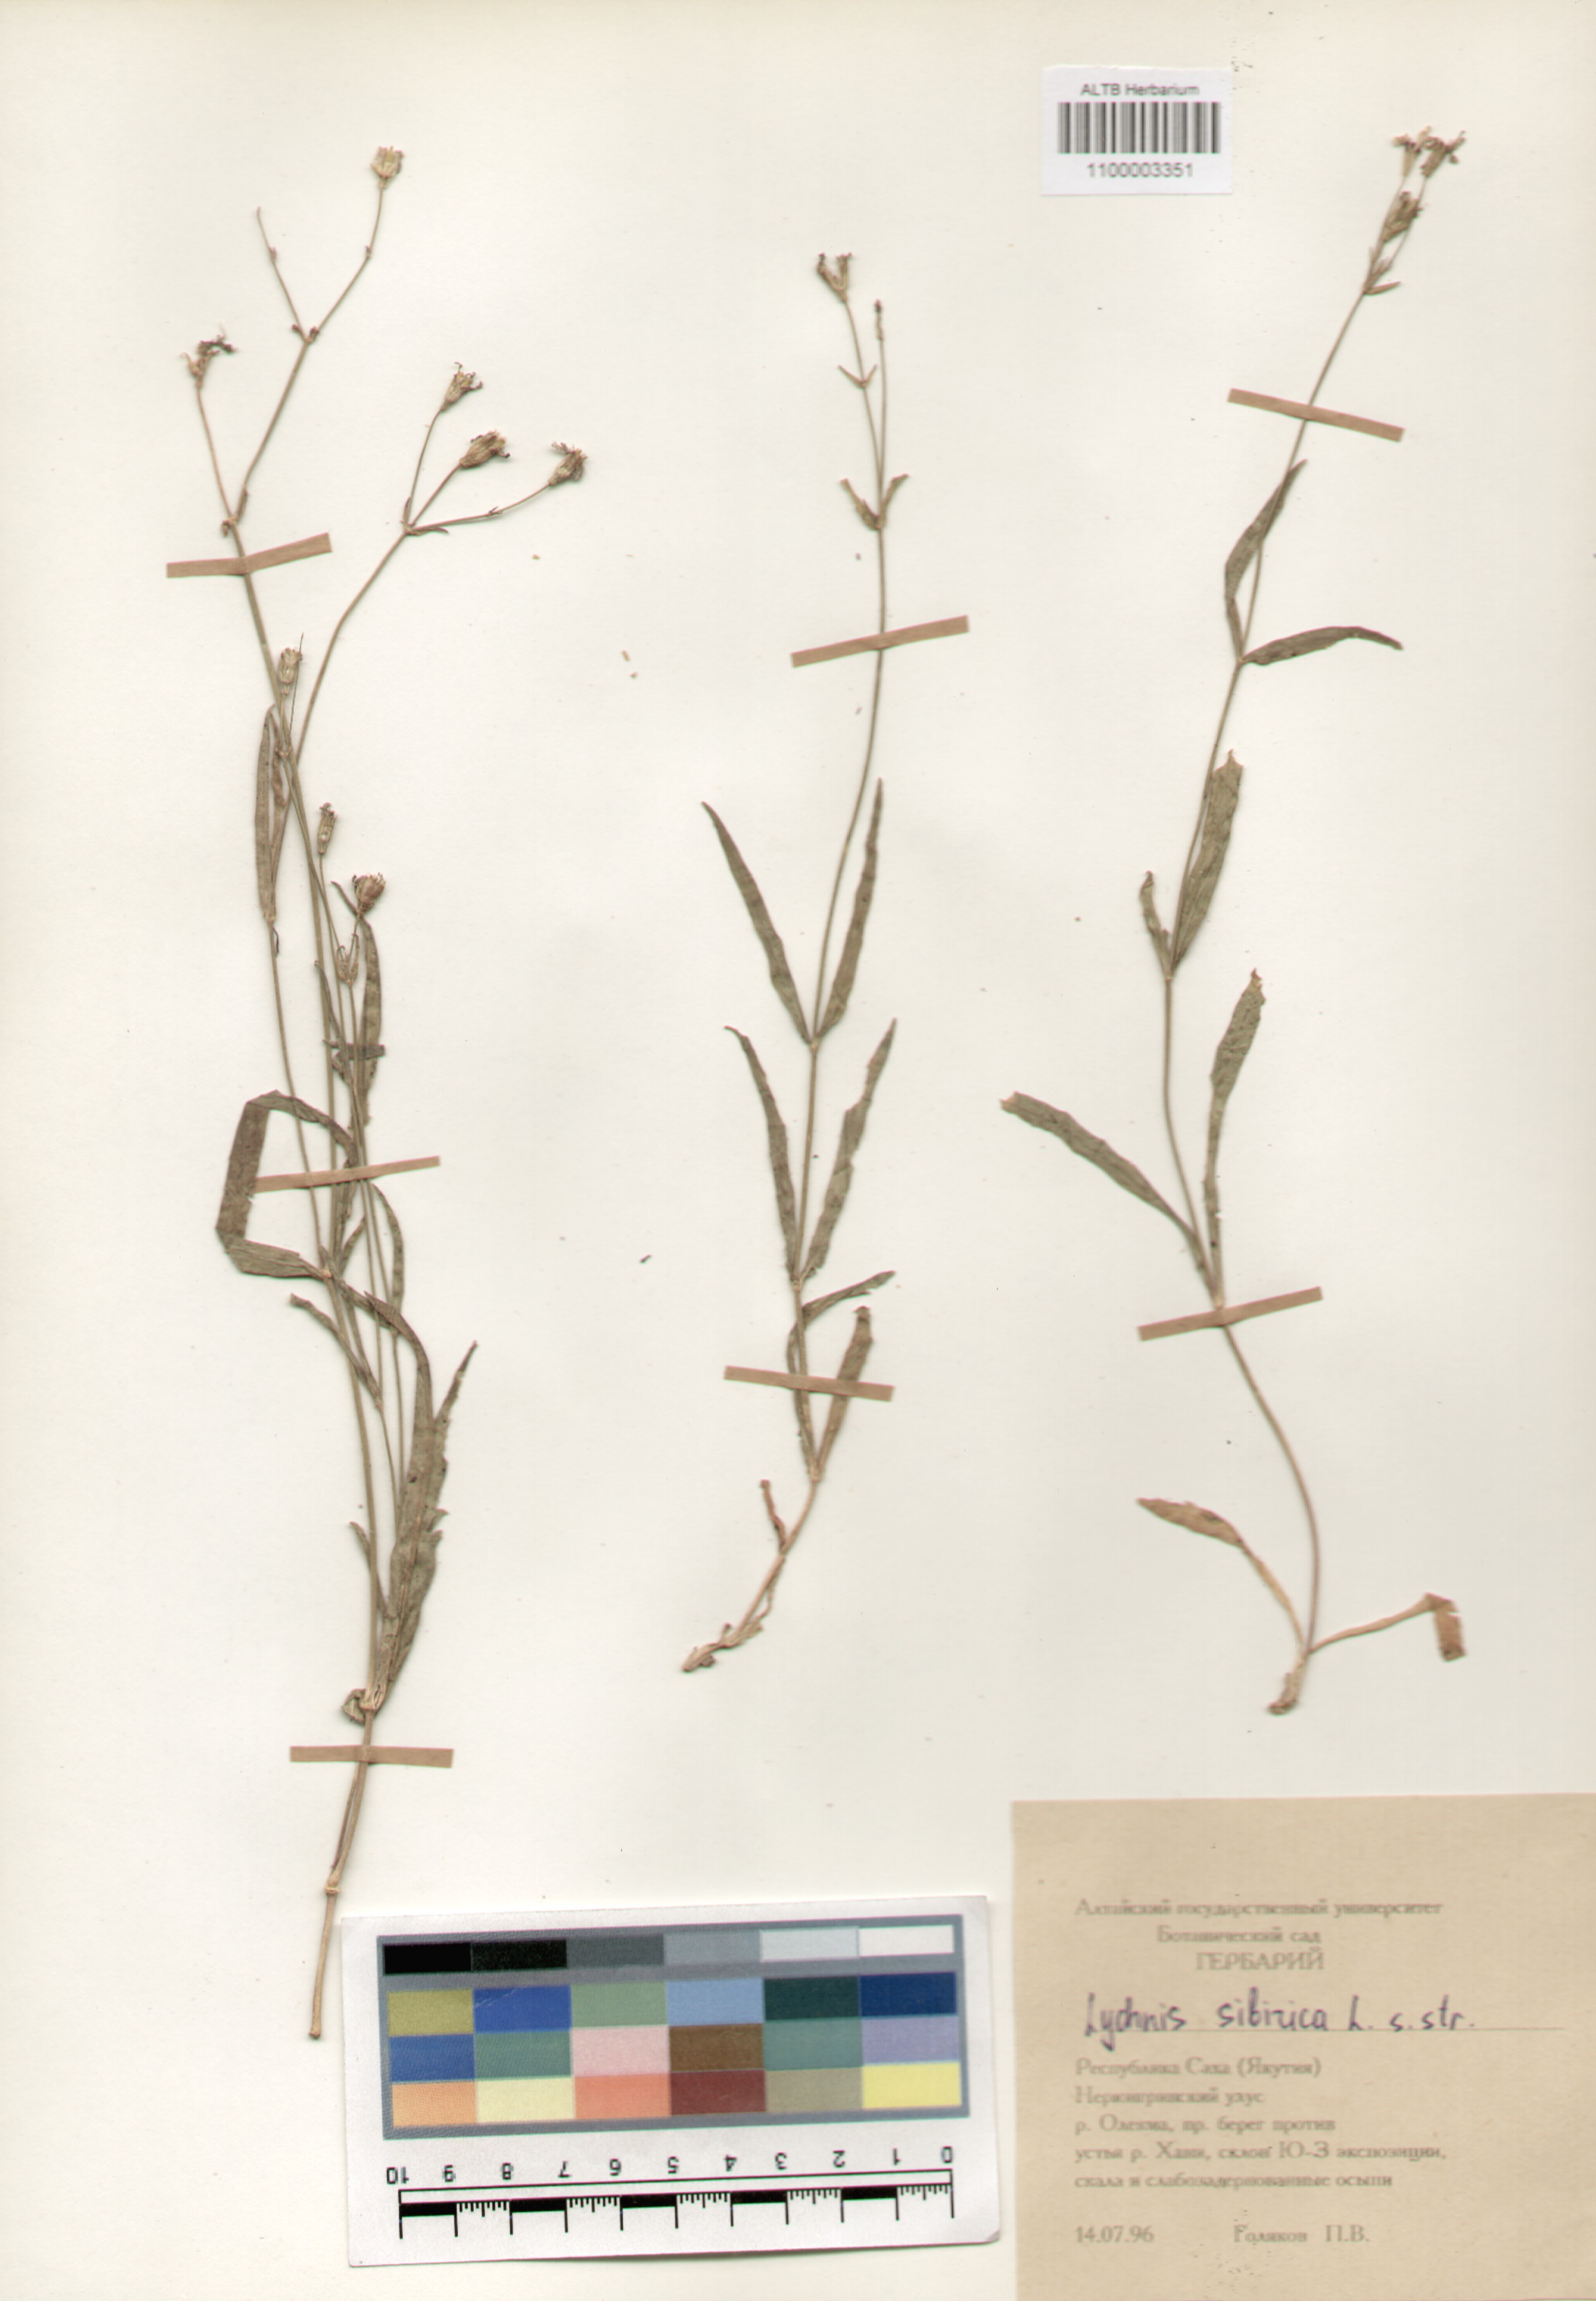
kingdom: Plantae
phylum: Tracheophyta
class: Magnoliopsida
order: Caryophyllales
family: Caryophyllaceae
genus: Silene
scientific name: Silene orientalimongolica
